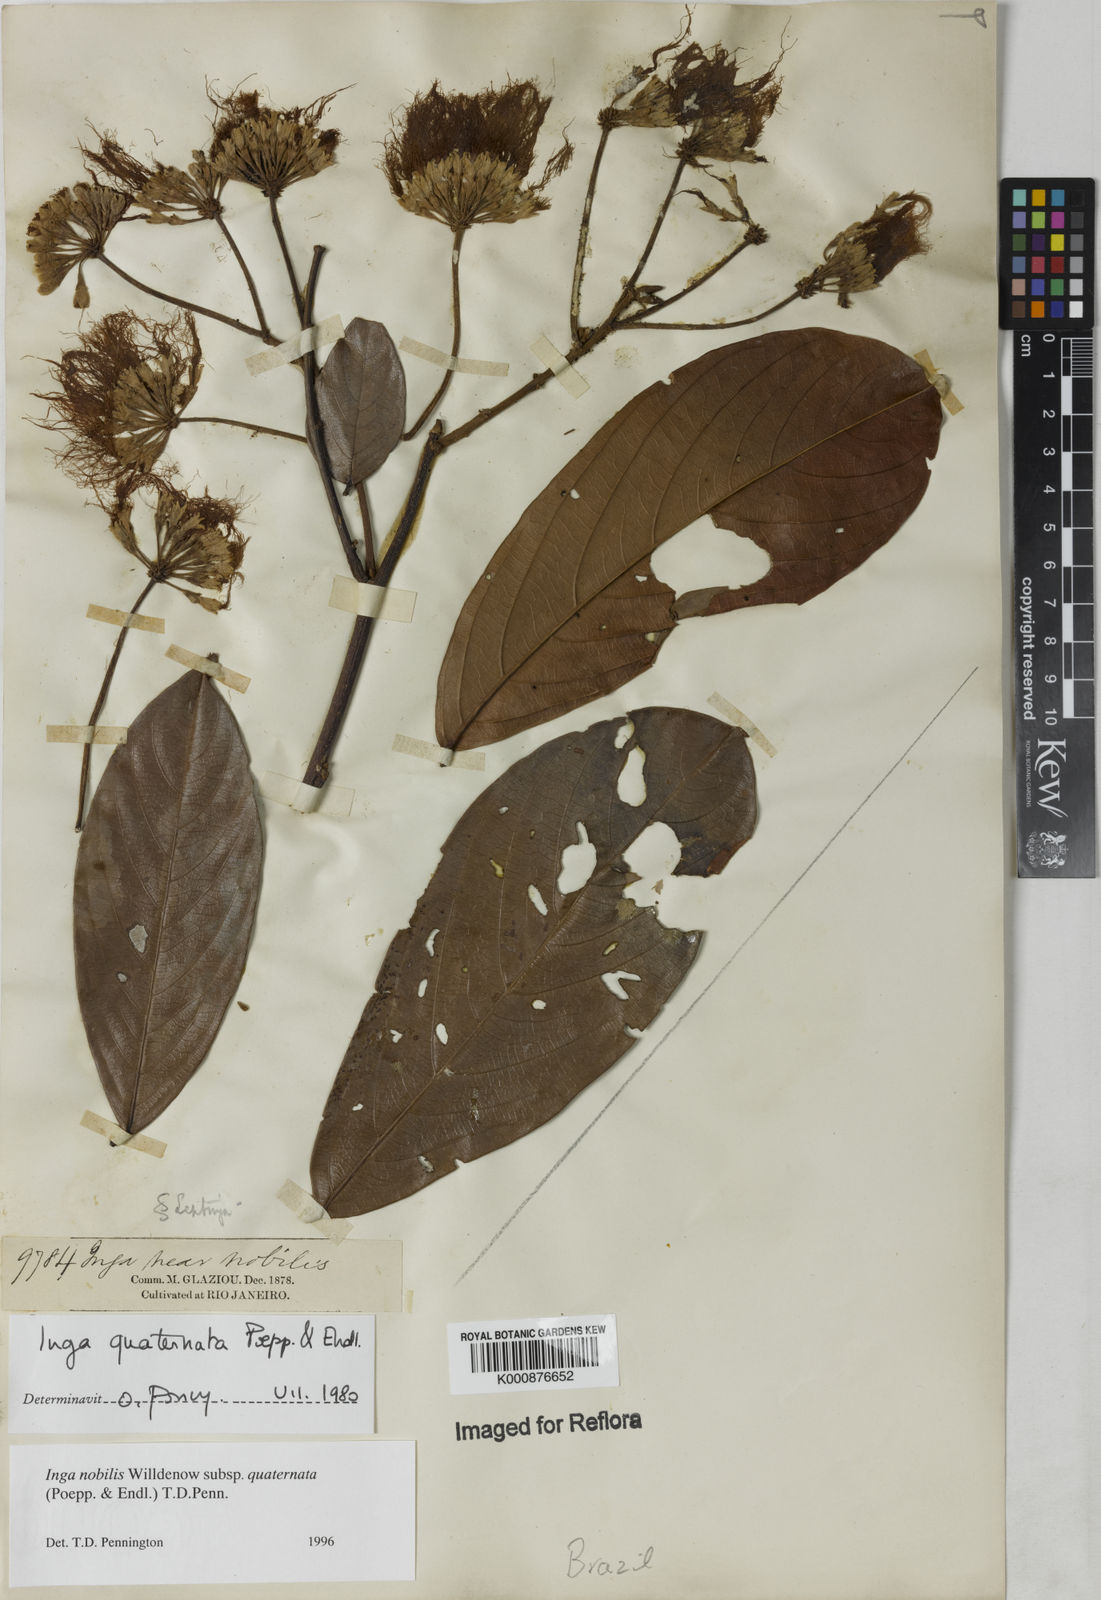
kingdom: Plantae
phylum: Tracheophyta
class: Magnoliopsida
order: Fabales
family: Fabaceae
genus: Inga
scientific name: Inga nobilis
